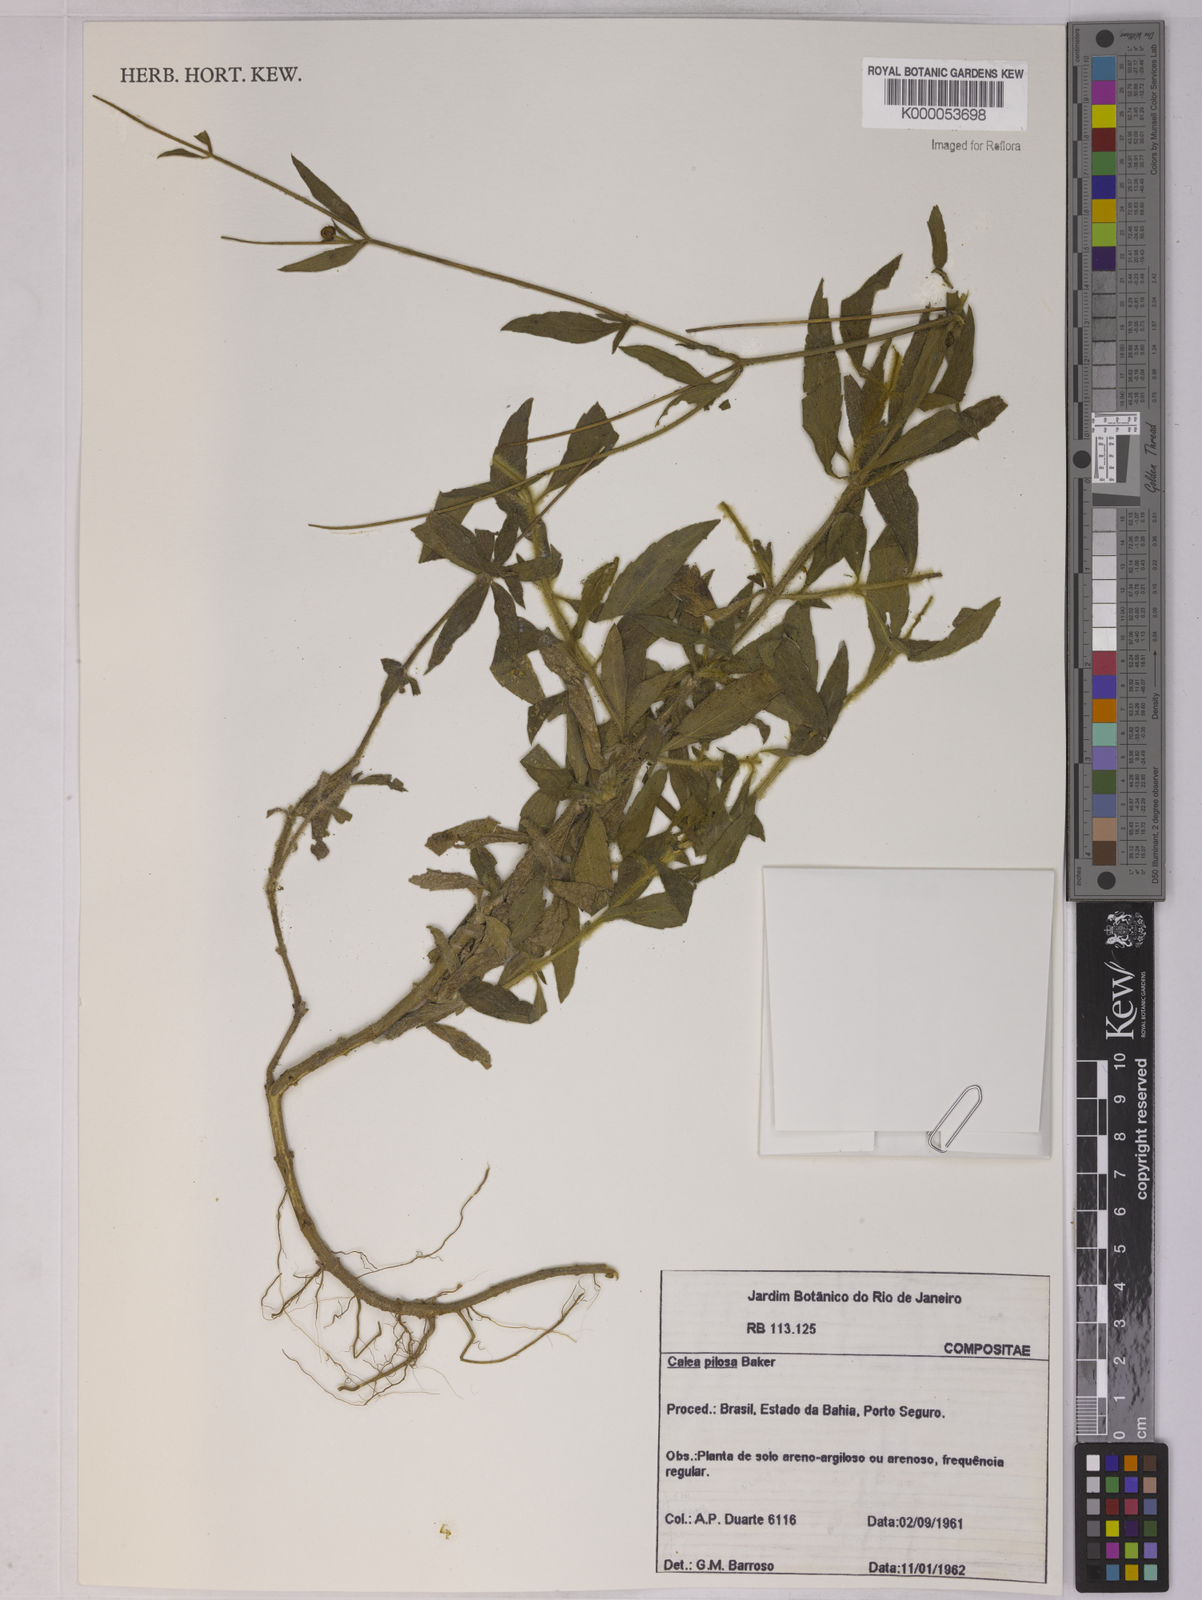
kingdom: Plantae
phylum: Tracheophyta
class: Magnoliopsida
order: Asterales
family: Asteraceae
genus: Calea
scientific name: Calea pilosa
